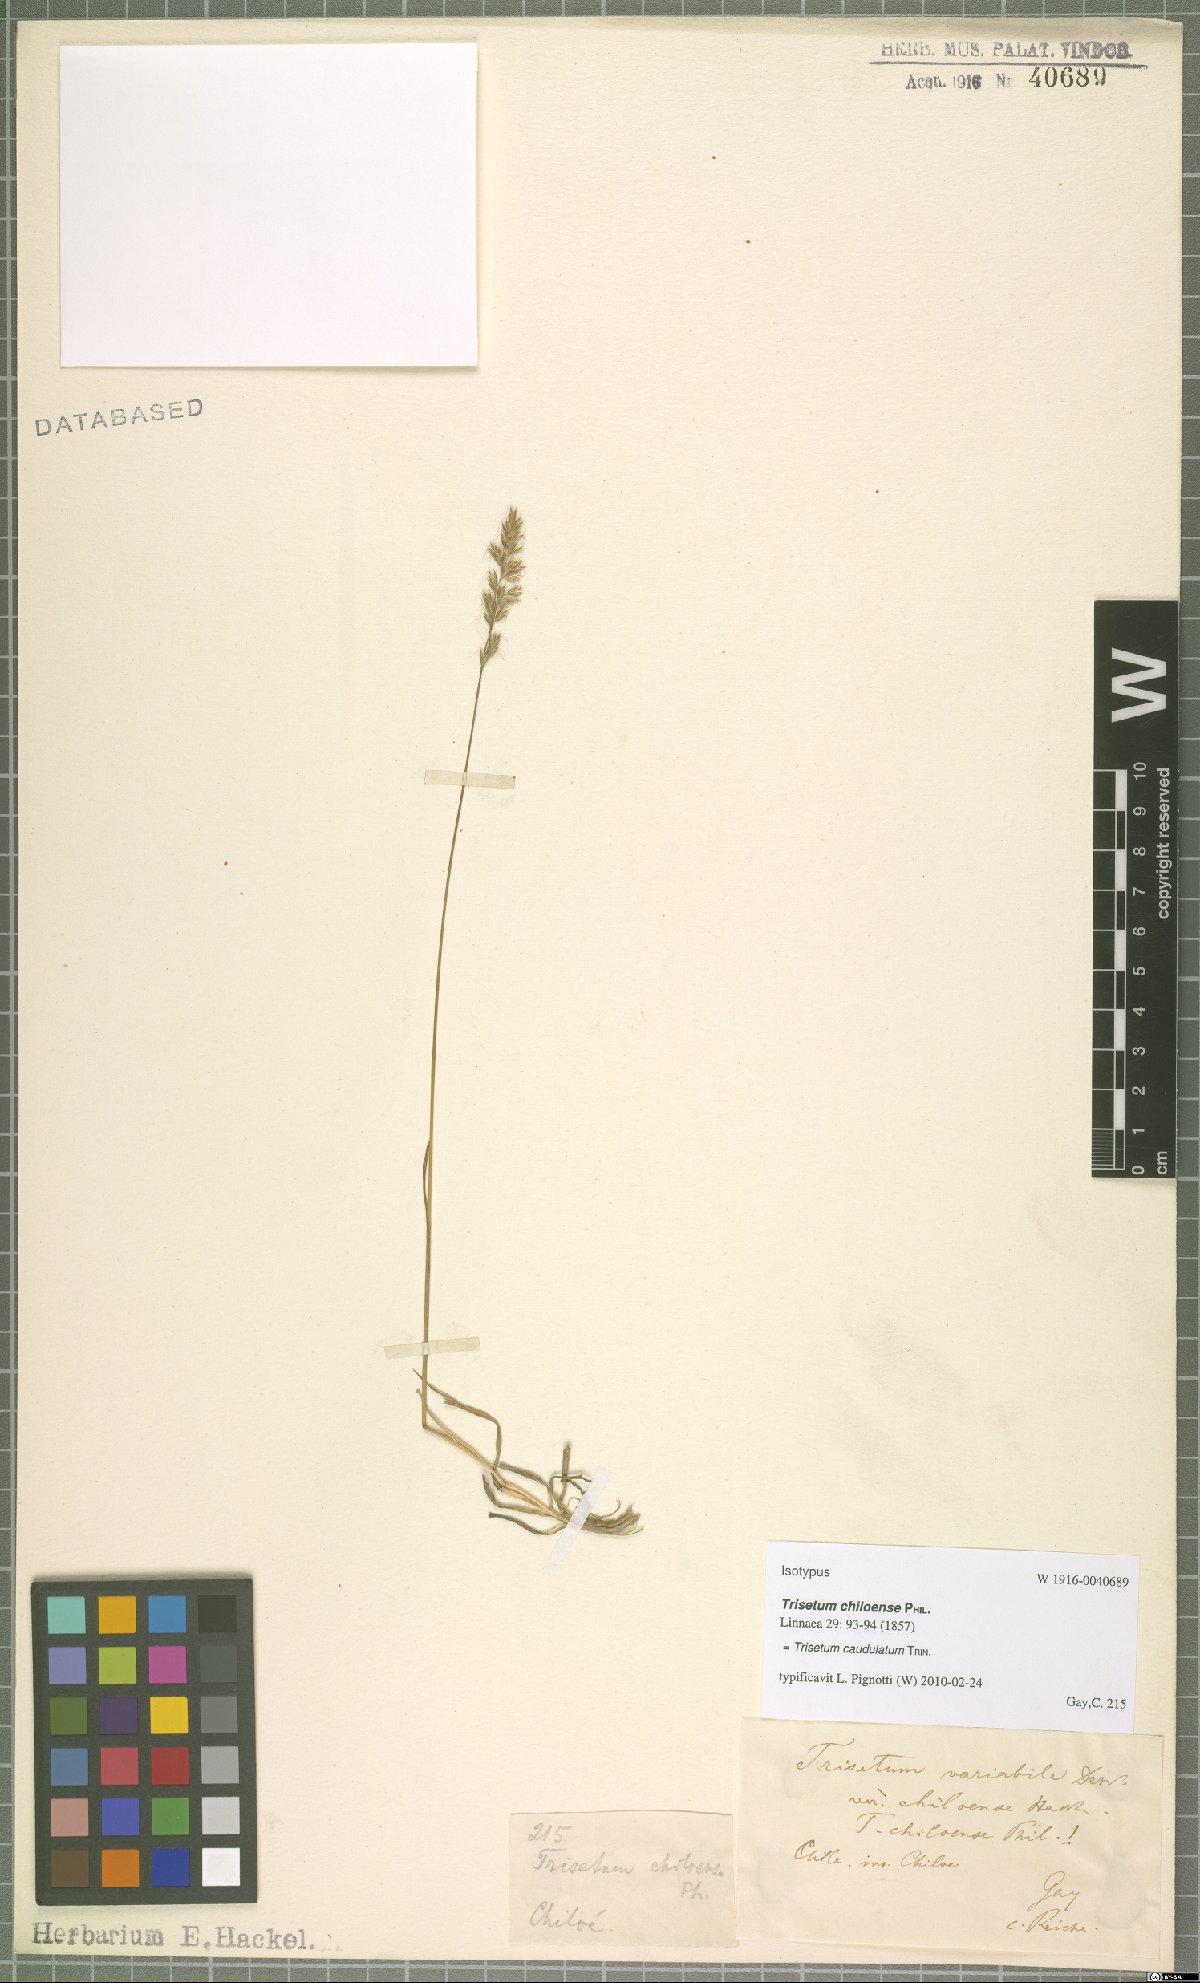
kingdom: Plantae
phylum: Tracheophyta
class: Liliopsida
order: Poales
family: Poaceae
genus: Trisetum
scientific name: Trisetum caudulatum
